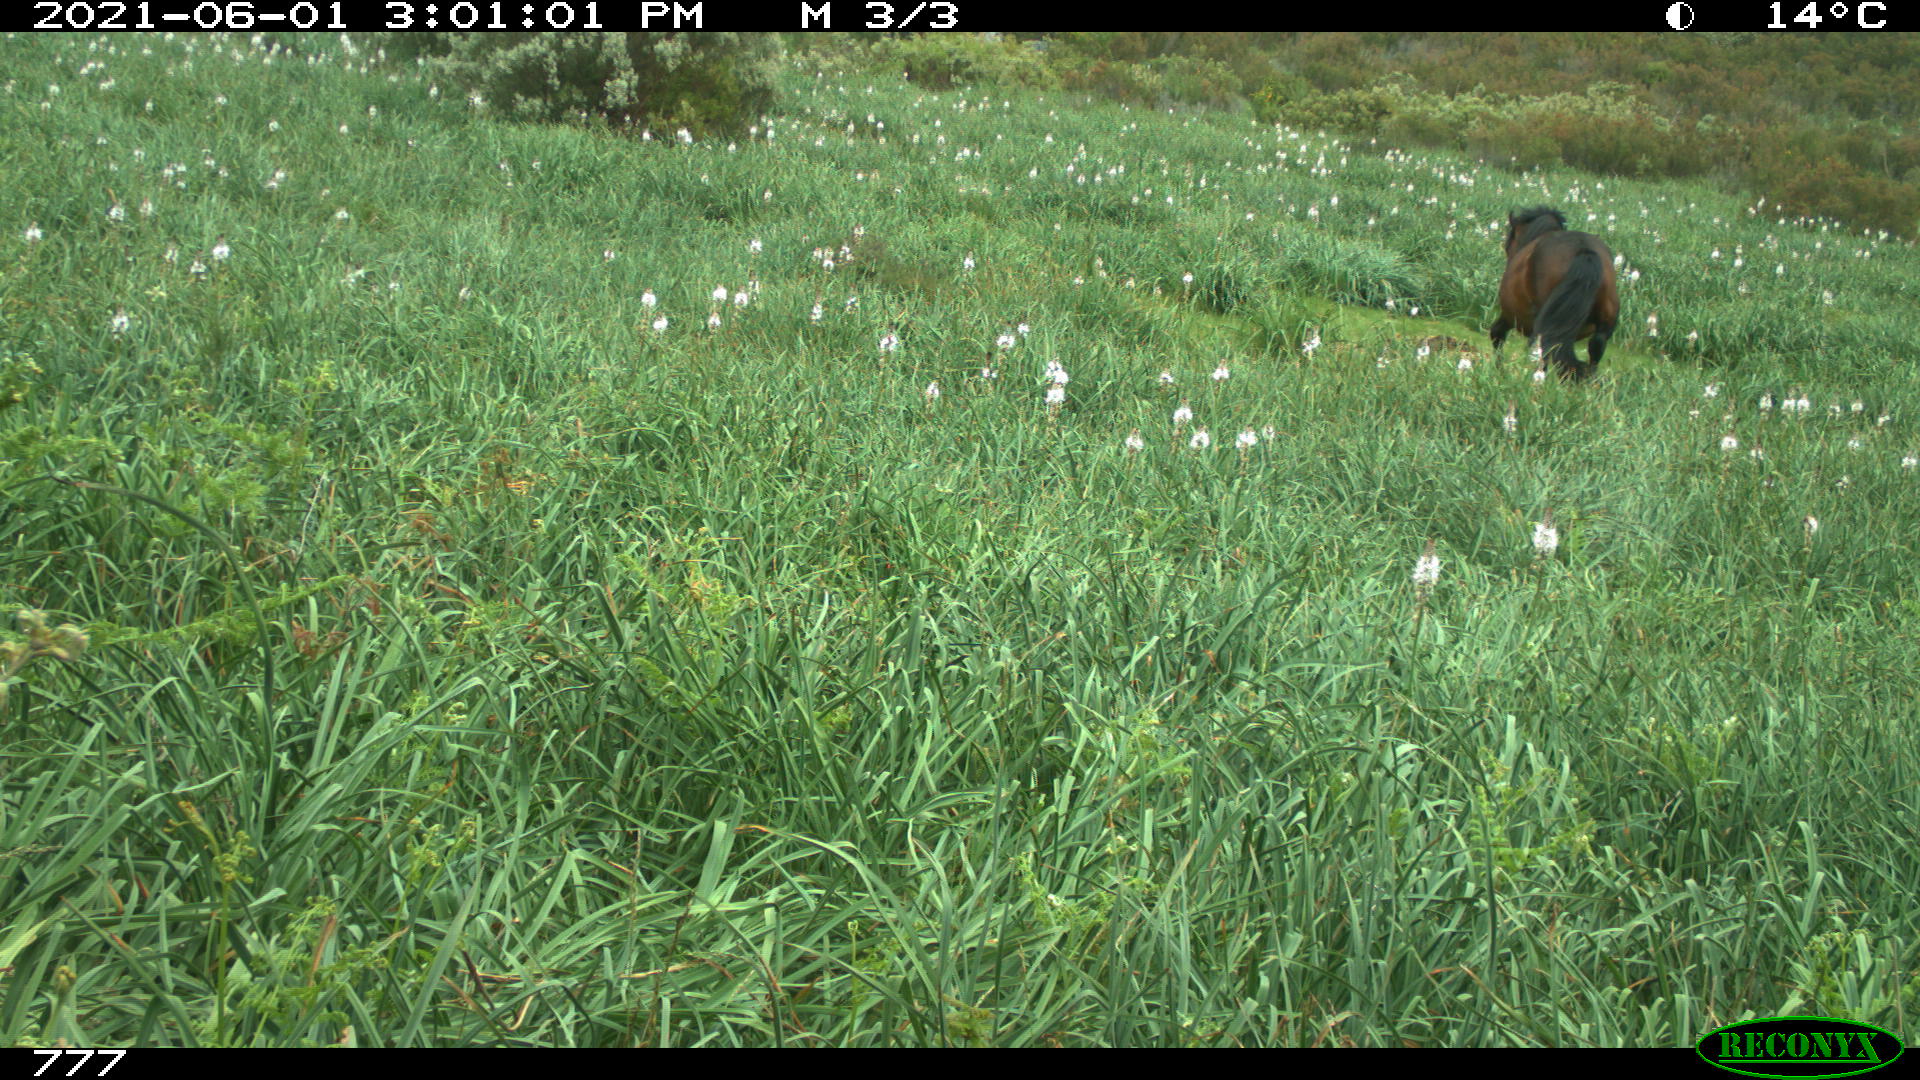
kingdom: Animalia
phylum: Chordata
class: Mammalia
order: Perissodactyla
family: Equidae
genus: Equus
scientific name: Equus caballus
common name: Horse
